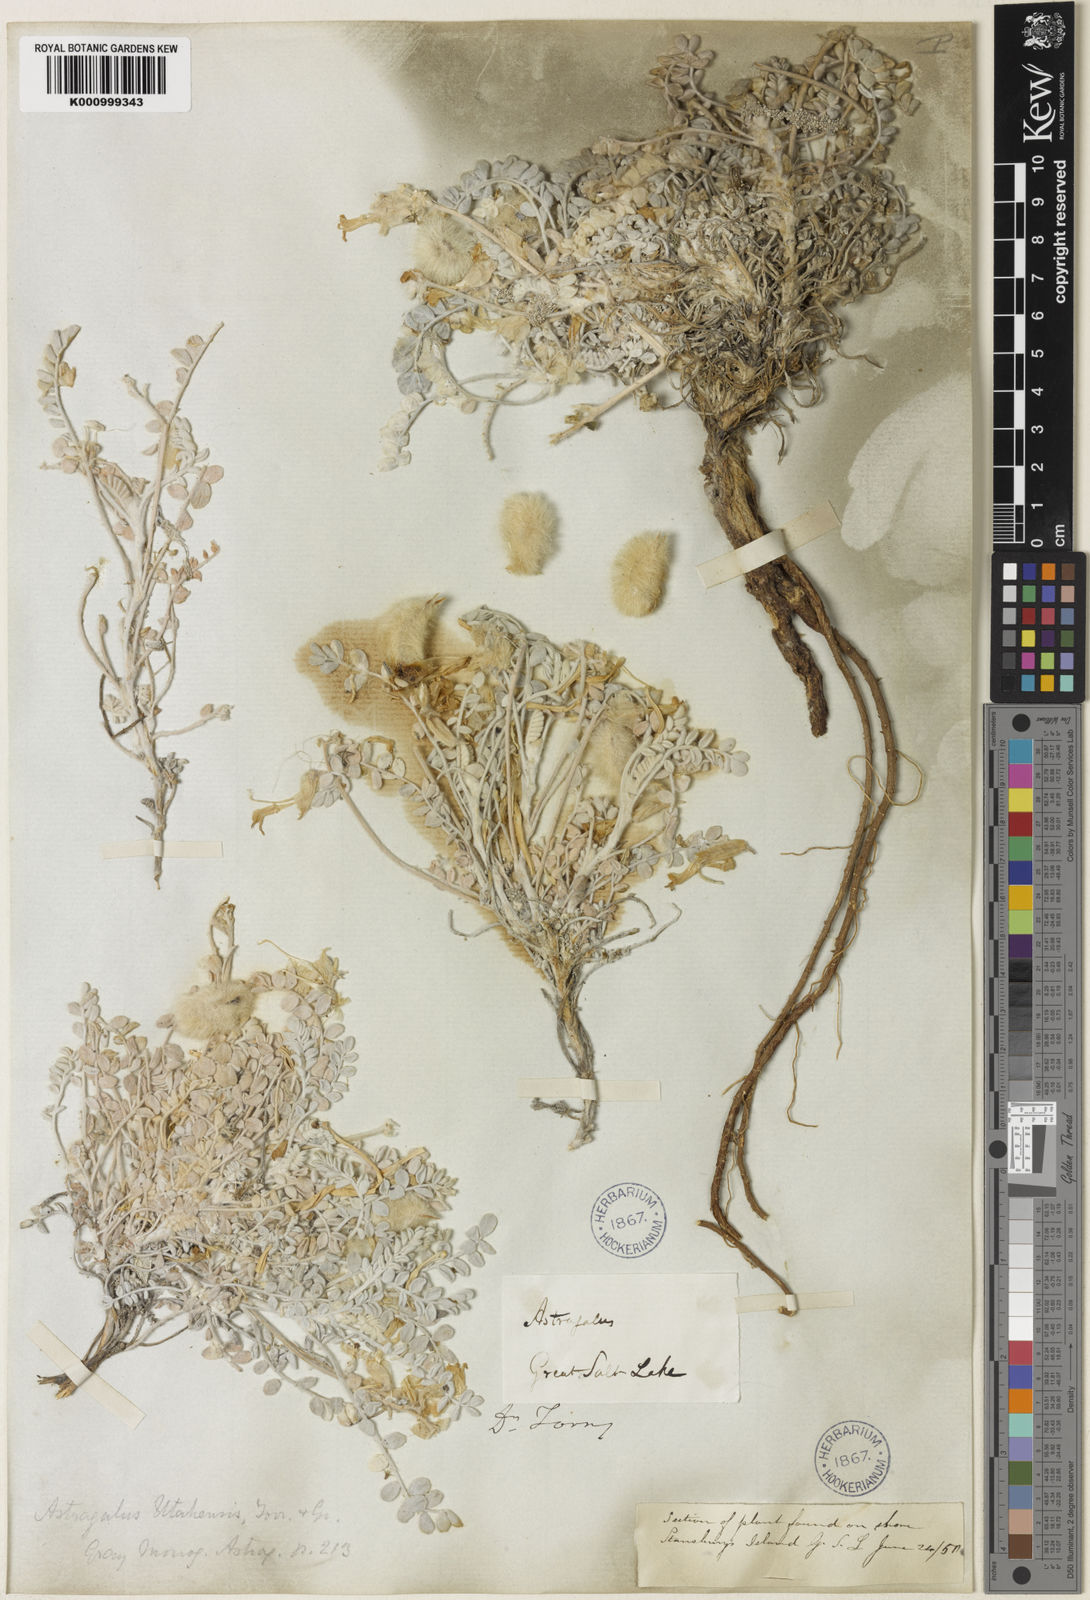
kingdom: Plantae
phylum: Tracheophyta
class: Magnoliopsida
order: Fabales
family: Fabaceae
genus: Astragalus
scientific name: Astragalus utahensis
